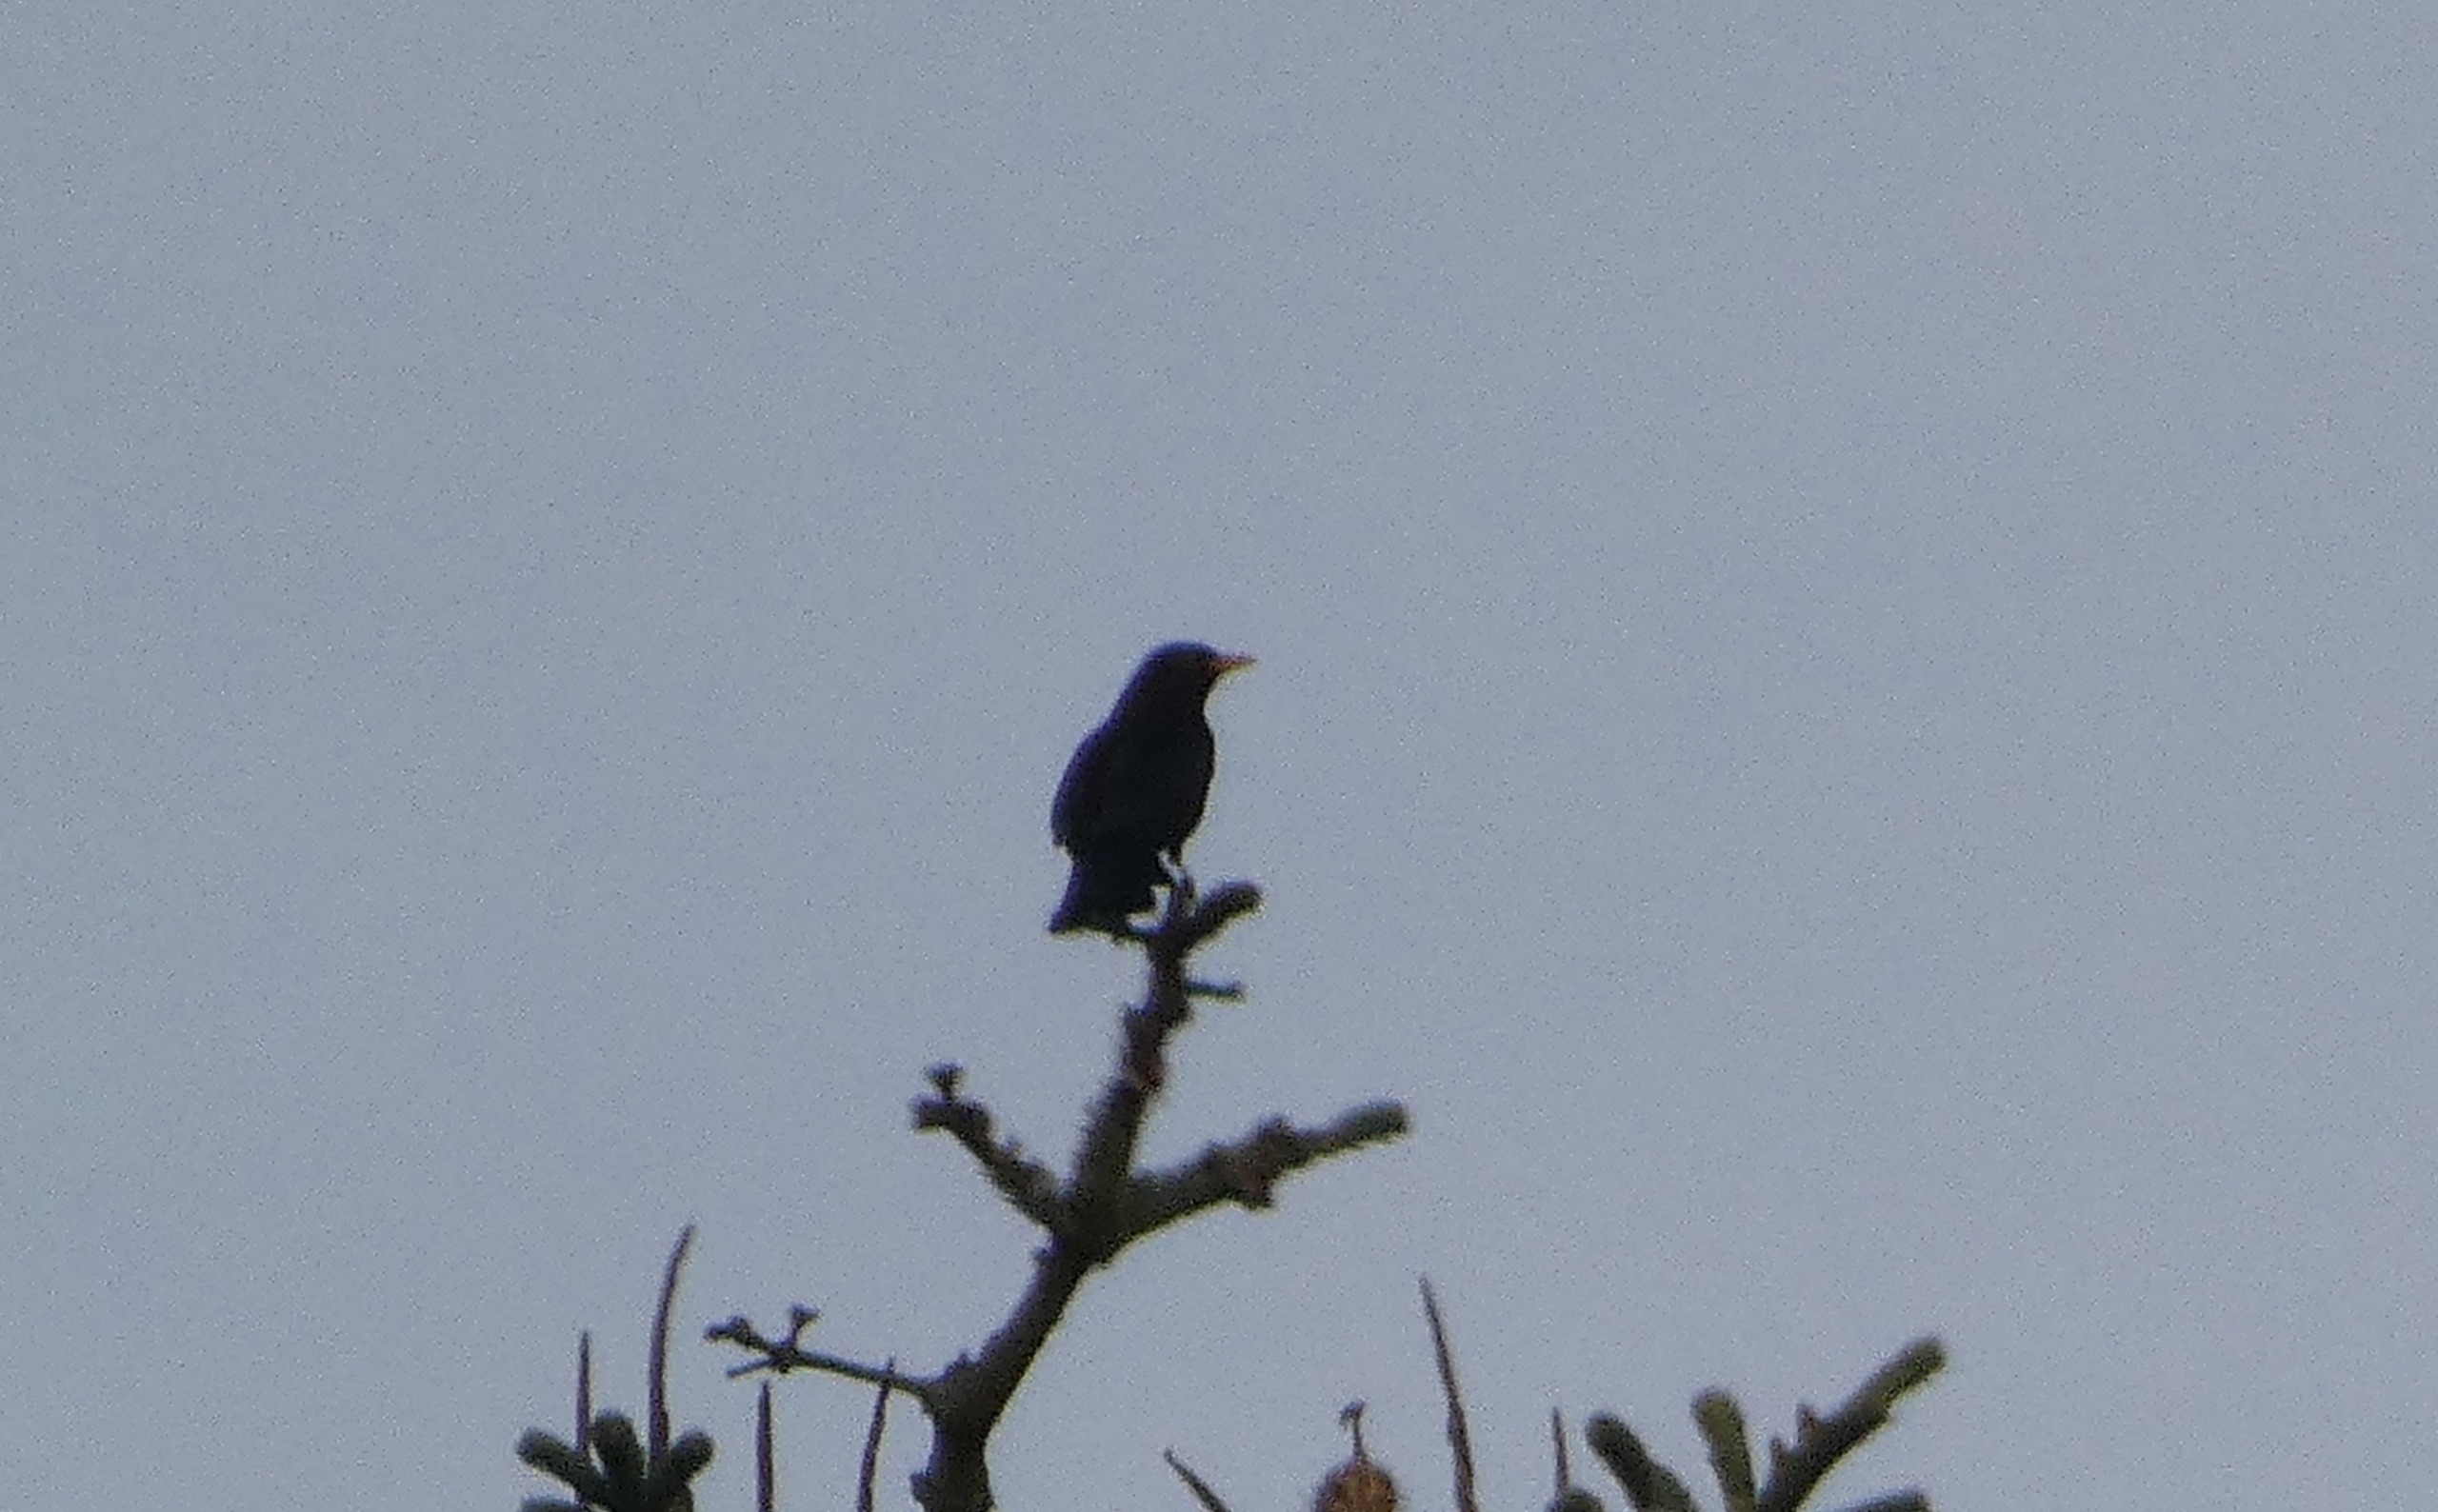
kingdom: Animalia
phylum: Chordata
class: Aves
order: Passeriformes
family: Turdidae
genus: Turdus
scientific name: Turdus merula
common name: Solsort
